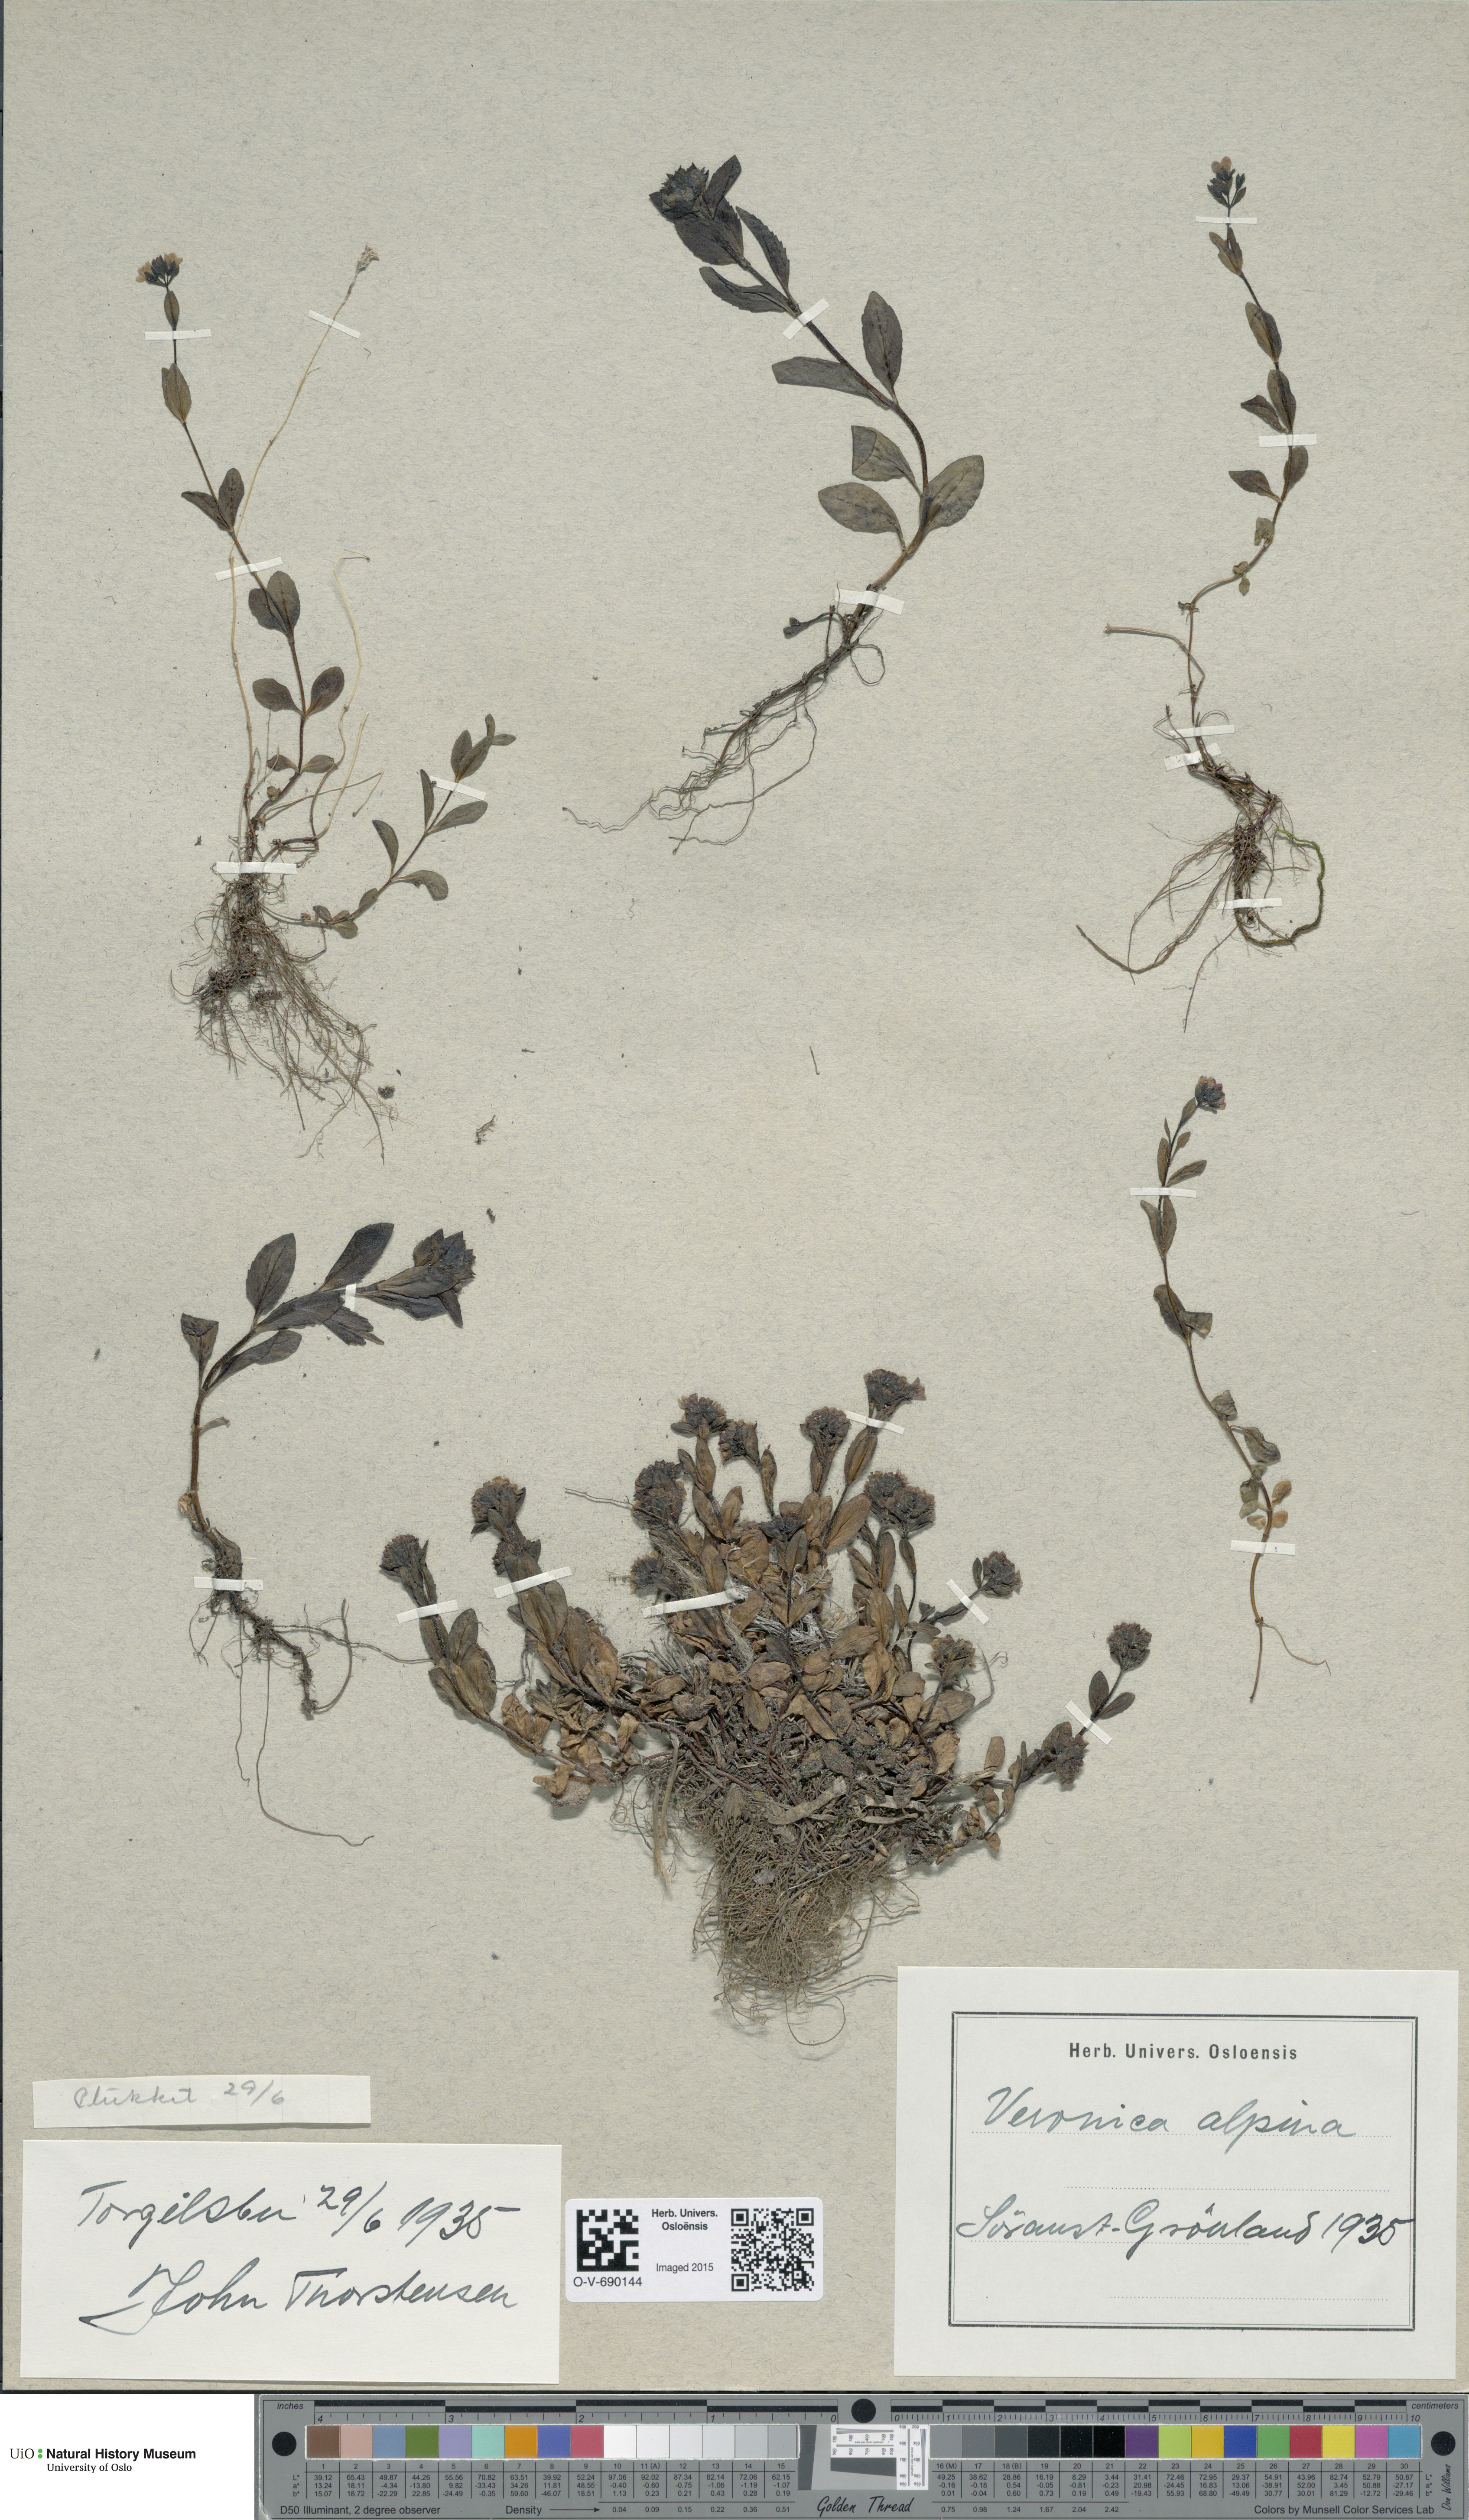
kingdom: Plantae
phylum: Tracheophyta
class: Magnoliopsida
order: Lamiales
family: Plantaginaceae
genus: Veronica
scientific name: Veronica alpina
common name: Alpine speedwell
